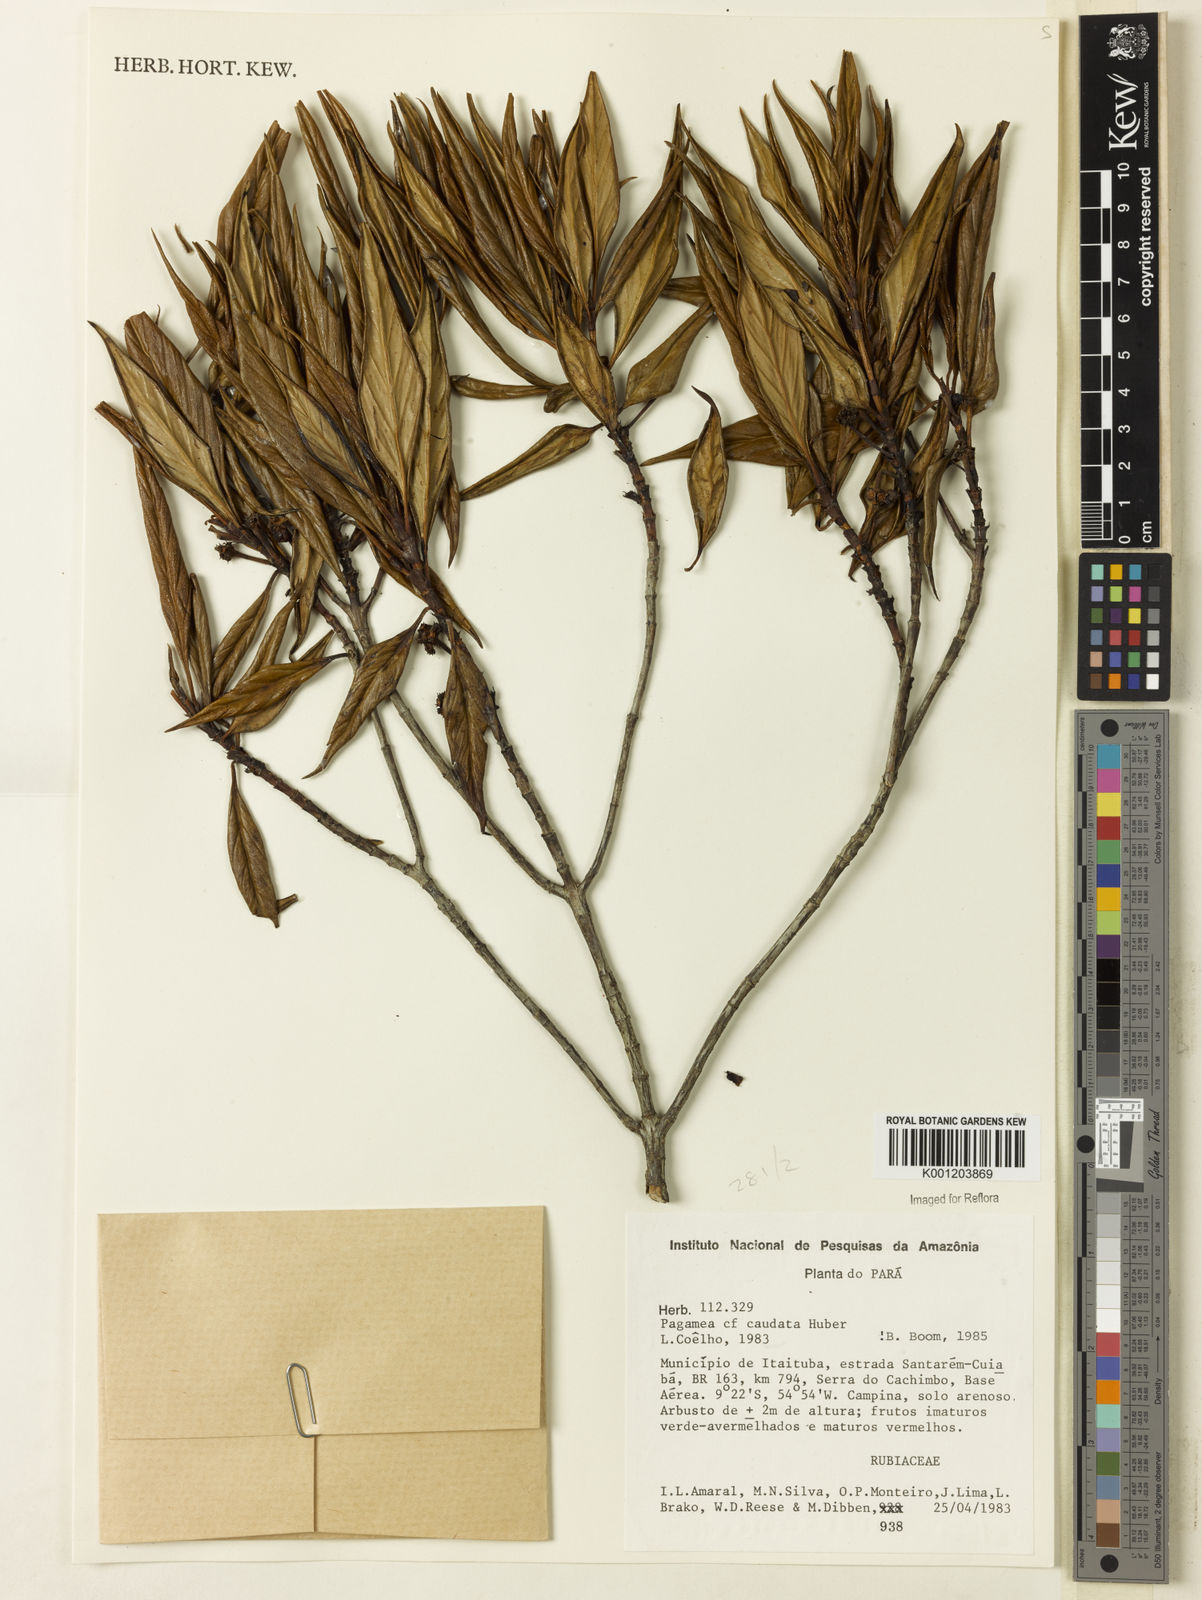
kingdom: Plantae
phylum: Tracheophyta
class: Magnoliopsida
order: Gentianales
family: Rubiaceae
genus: Pagamea
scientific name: Pagamea capitata
